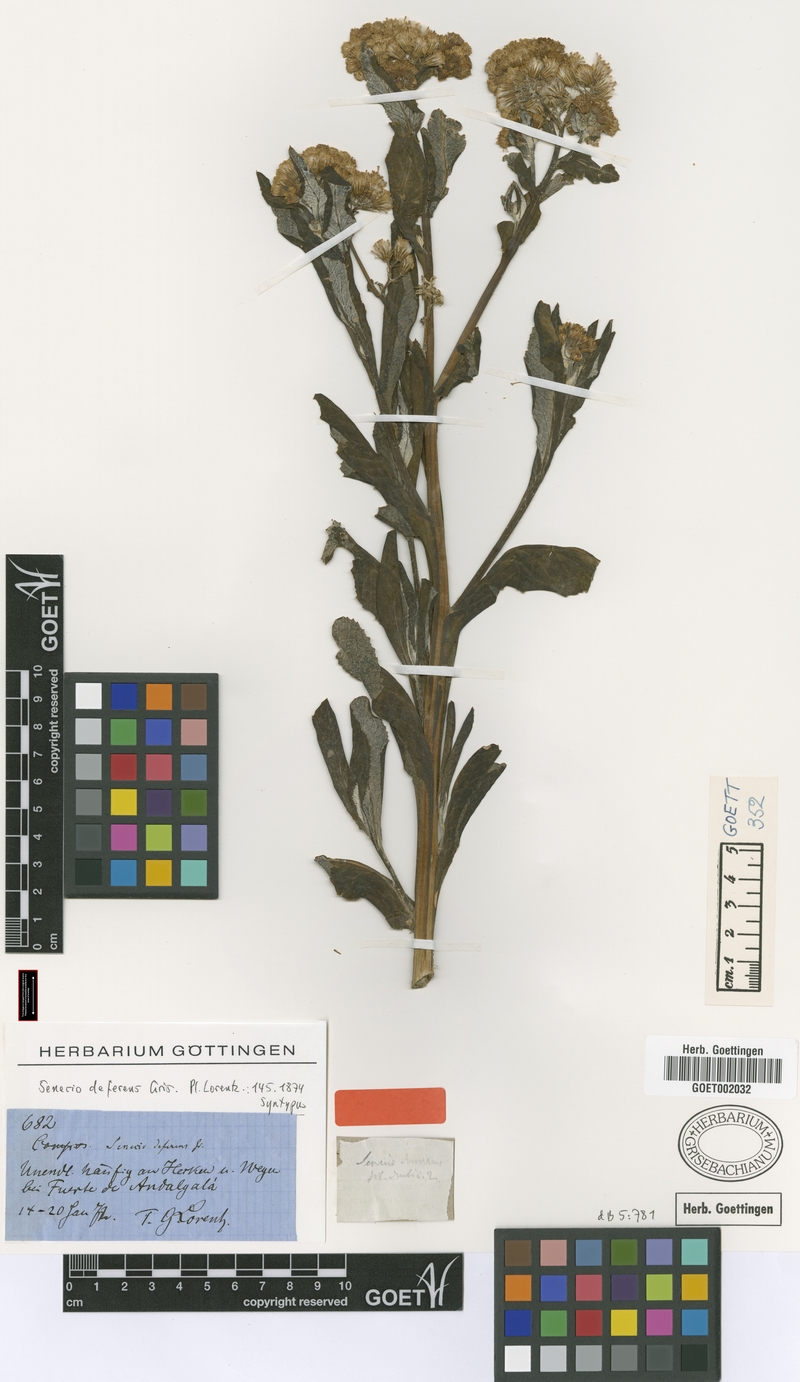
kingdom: Plantae
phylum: Tracheophyta
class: Magnoliopsida
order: Asterales
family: Asteraceae
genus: Senecio
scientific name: Senecio deferens
